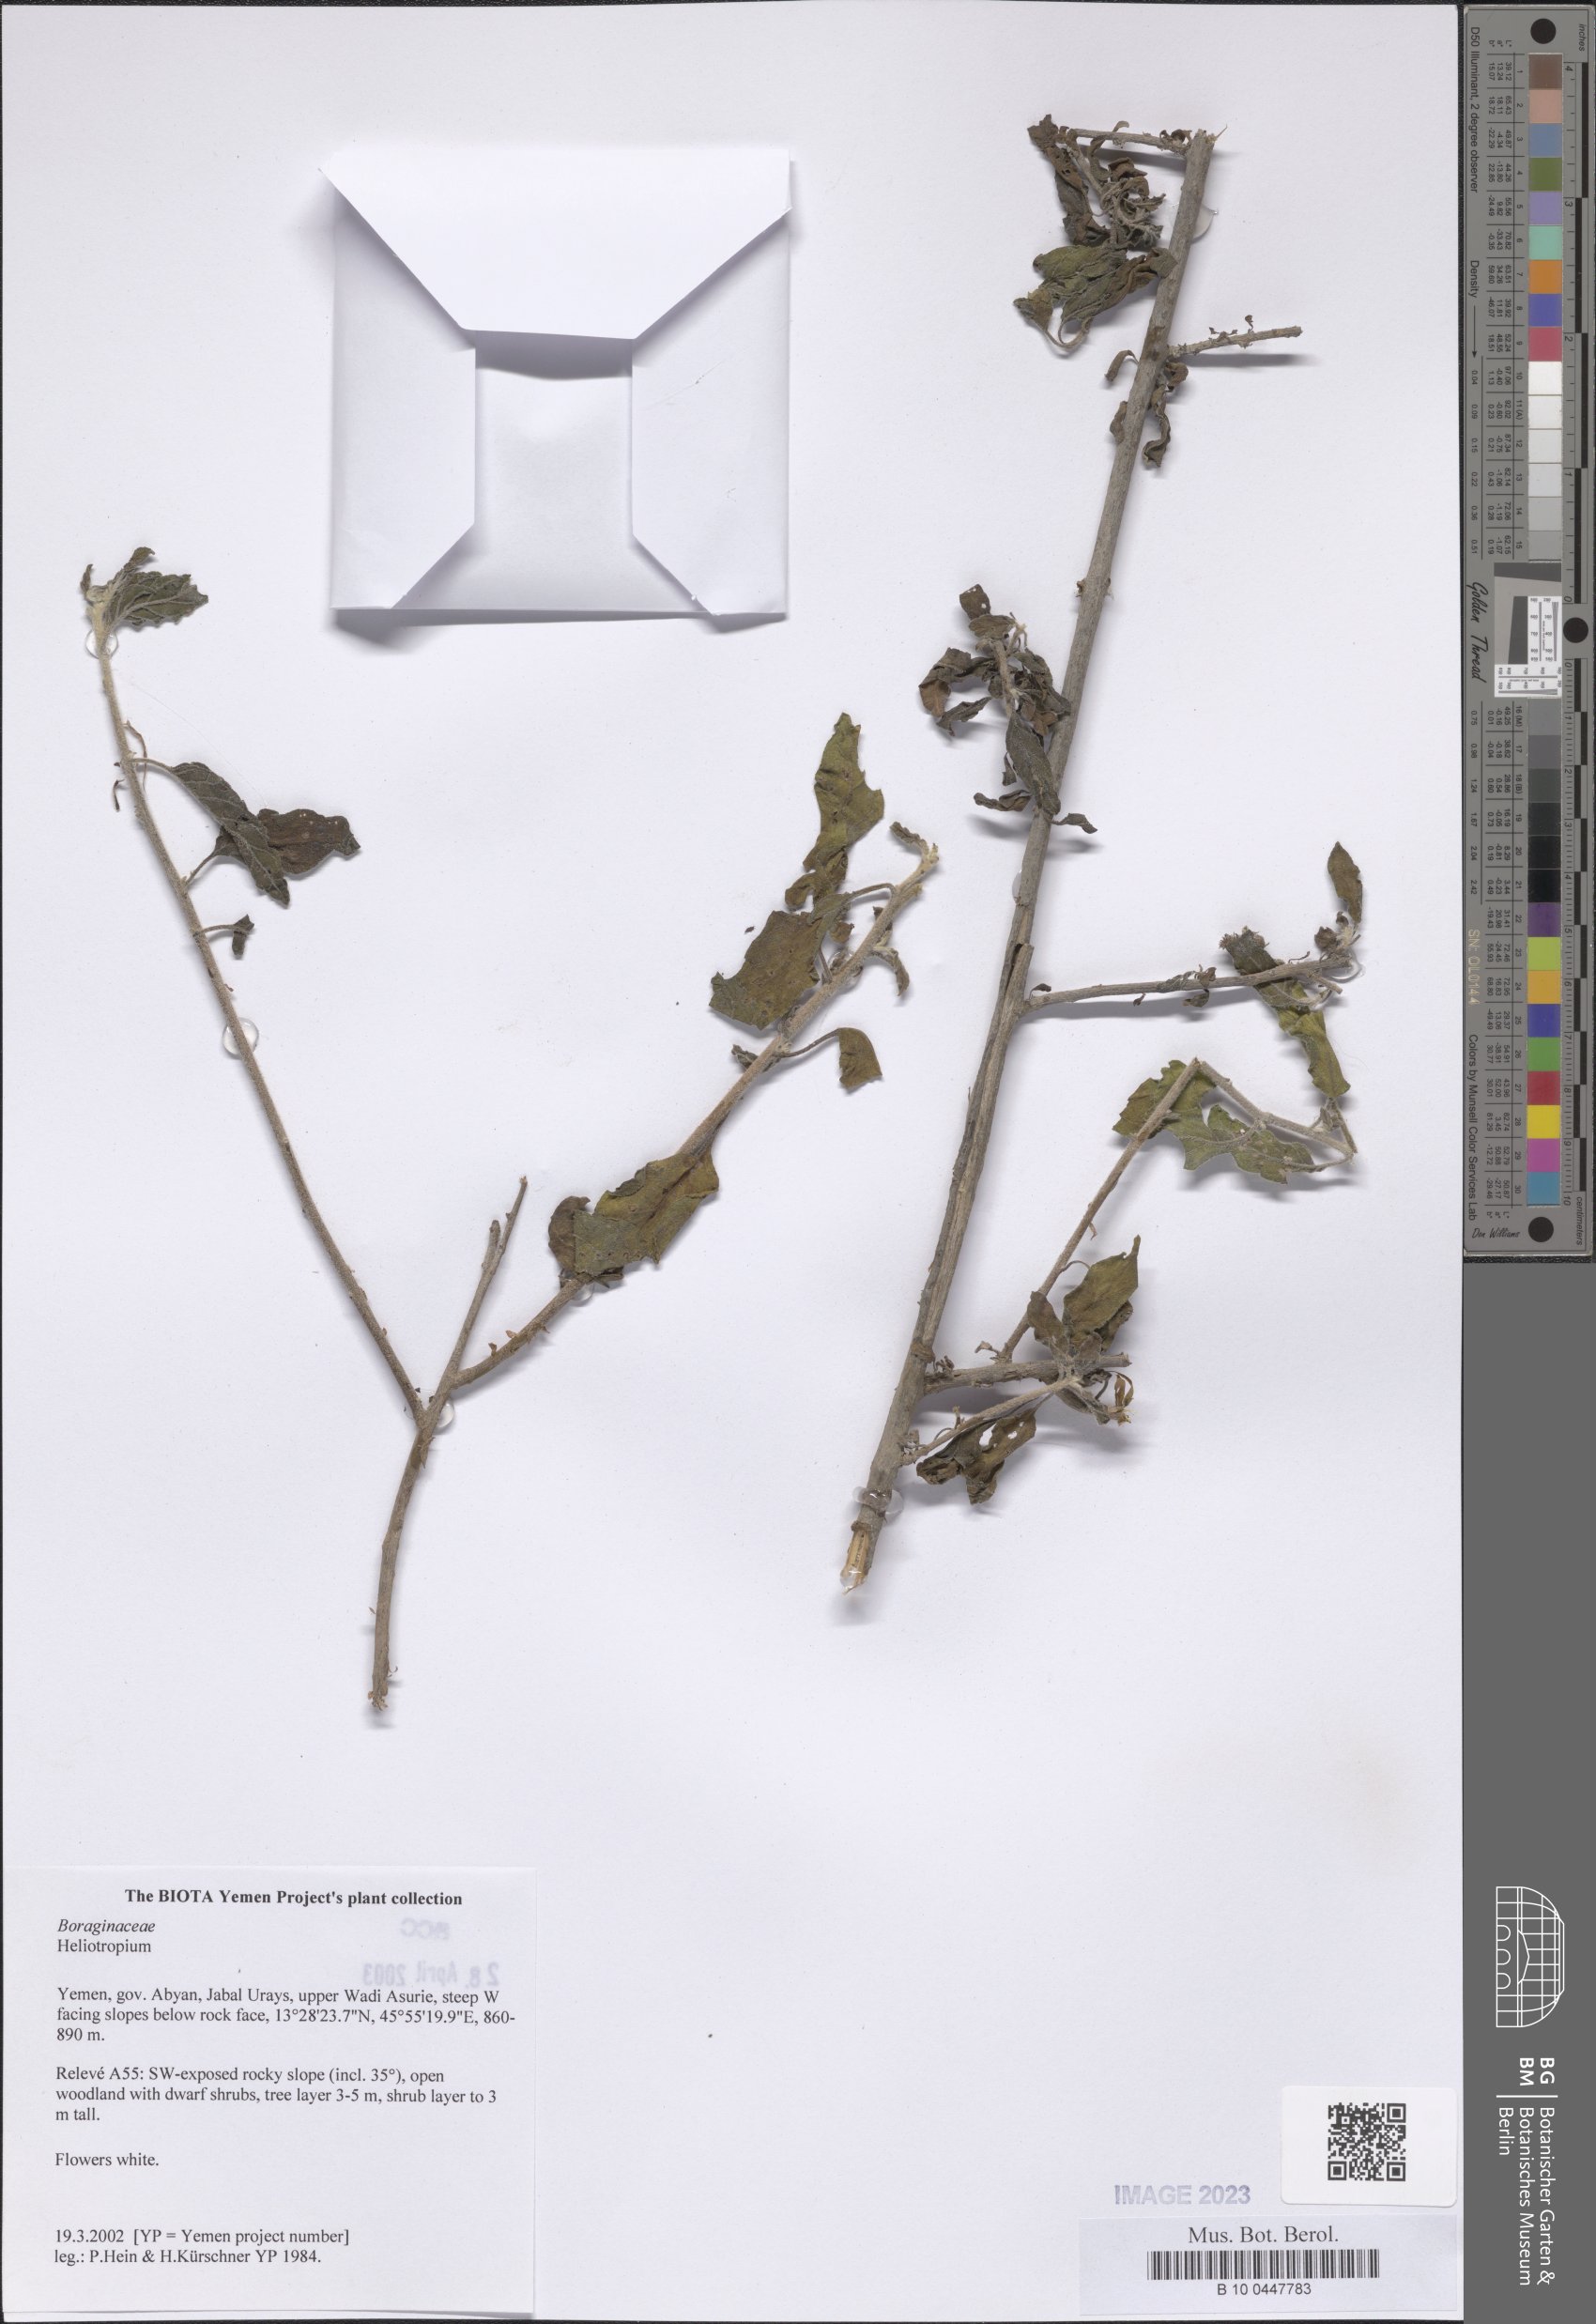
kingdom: Plantae
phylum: Tracheophyta
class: Magnoliopsida
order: Boraginales
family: Heliotropiaceae
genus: Heliotropium
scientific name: Heliotropium
